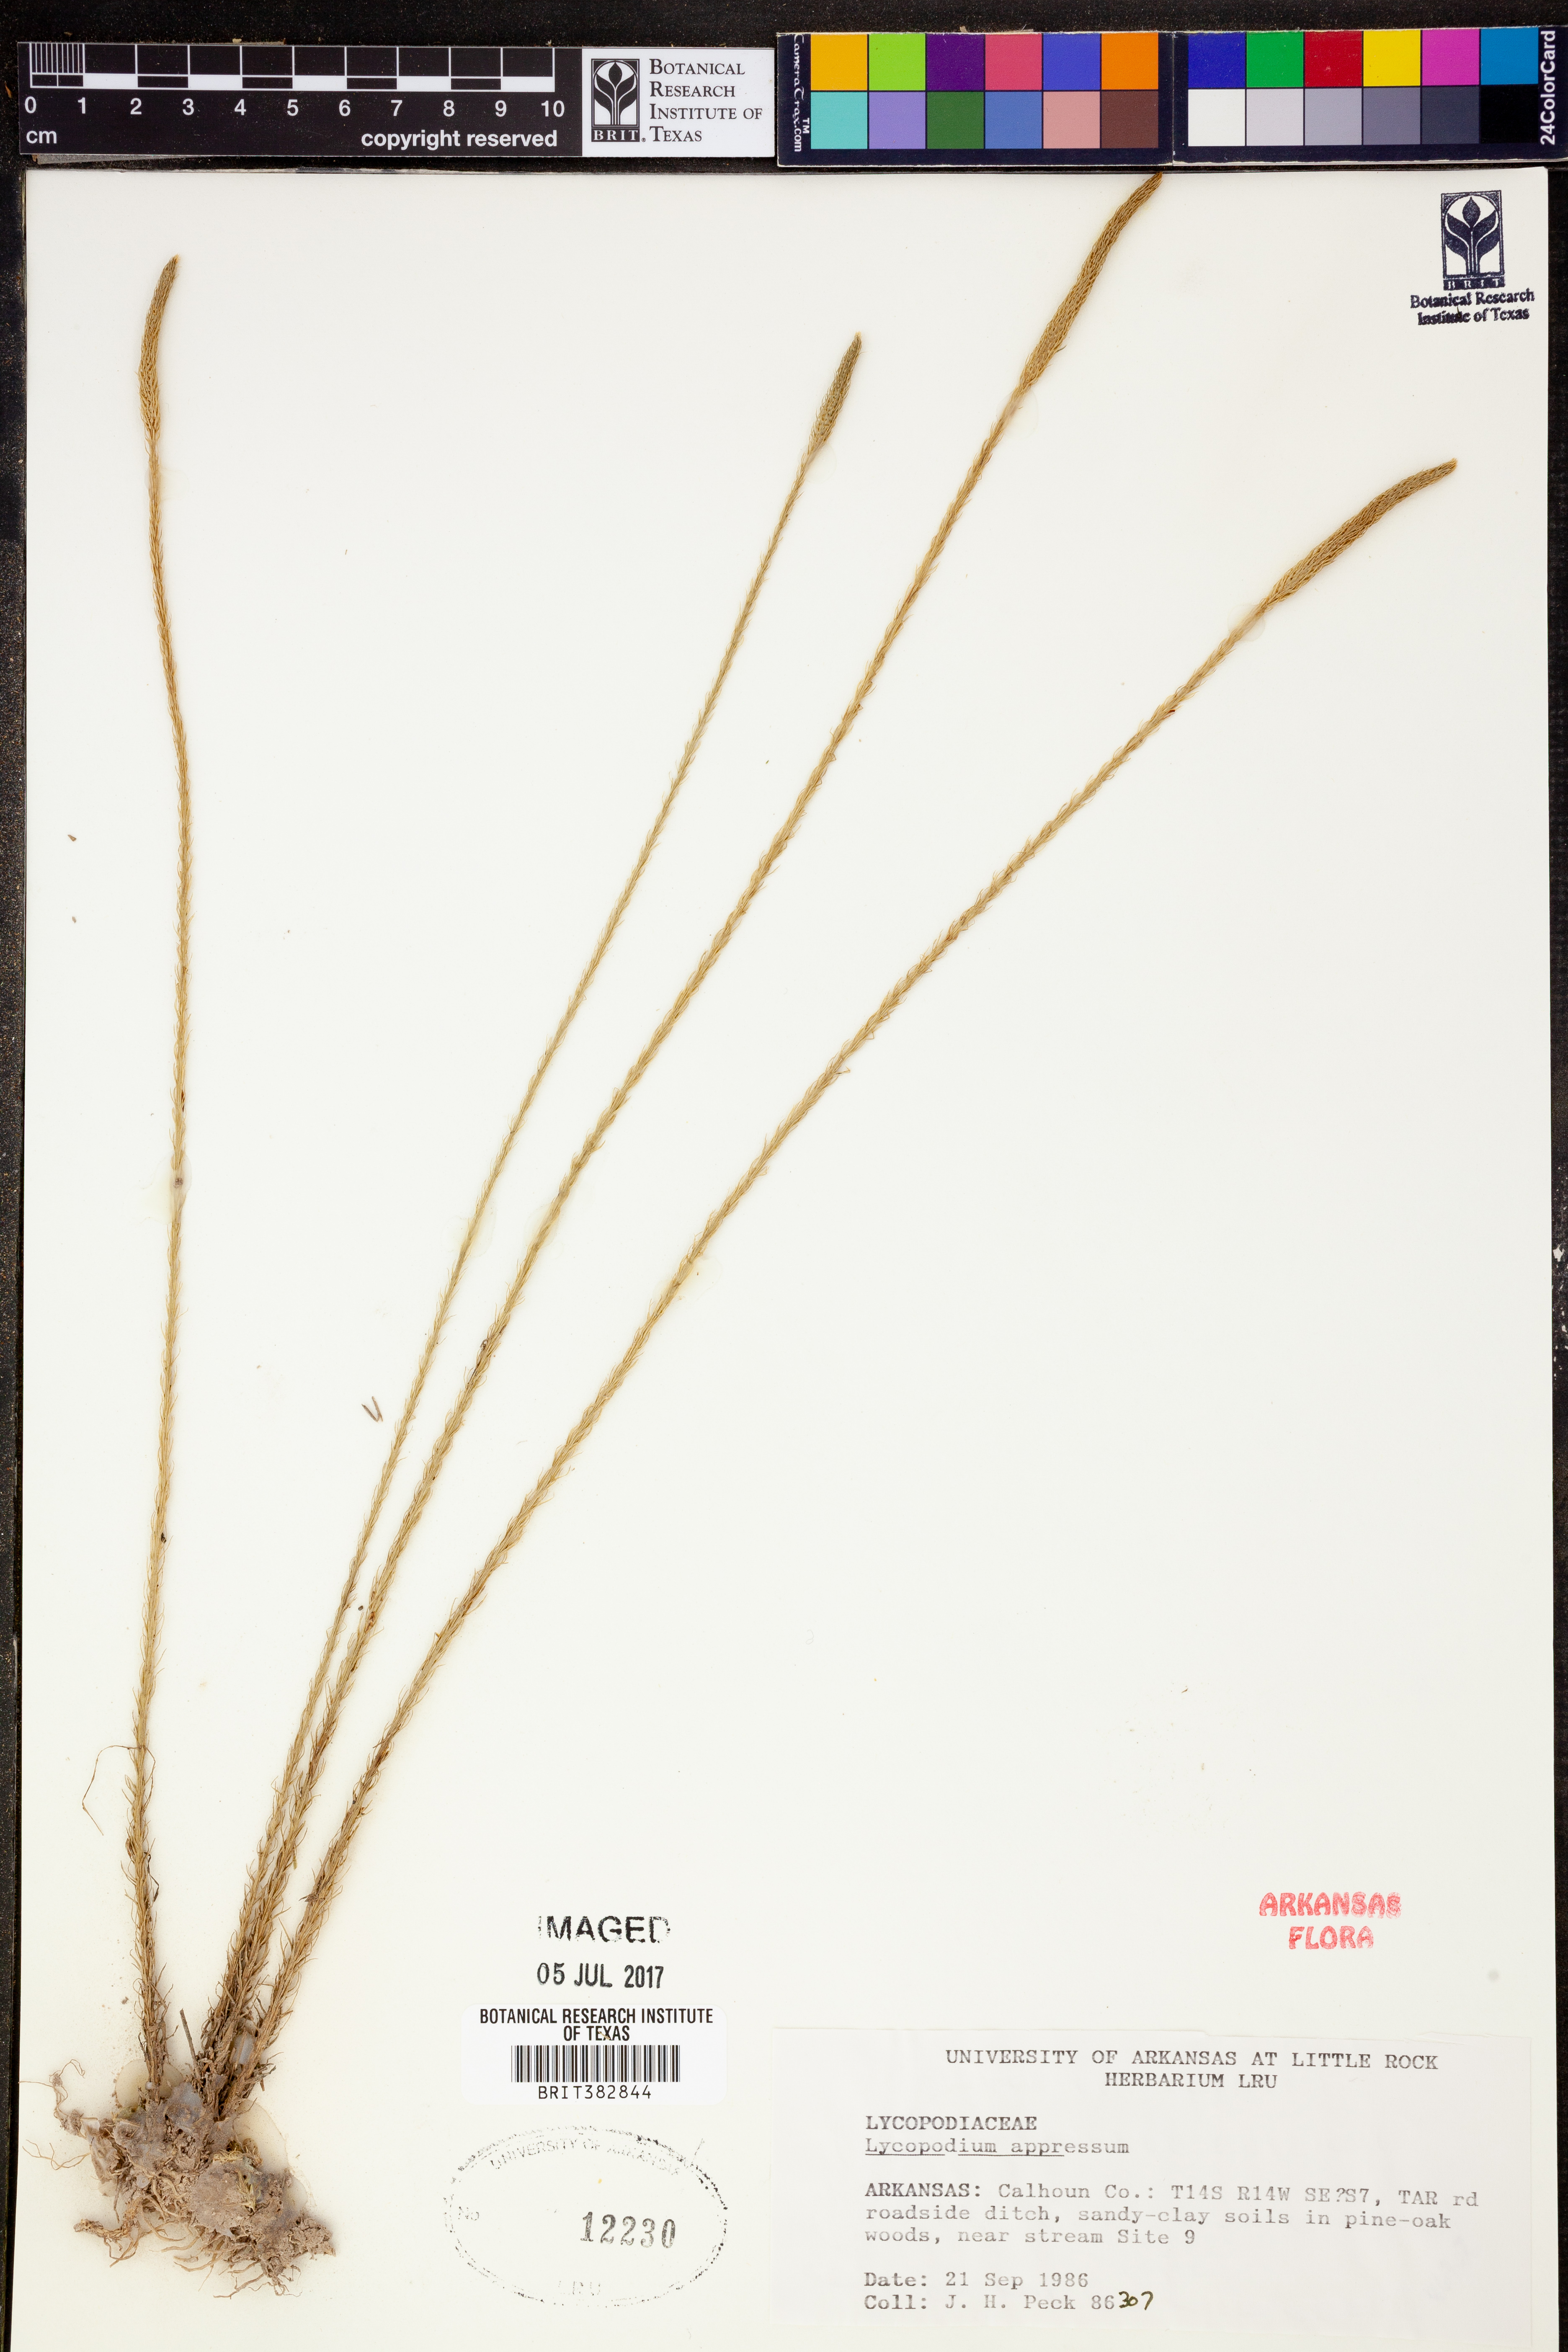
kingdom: Plantae
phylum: Tracheophyta
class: Lycopodiopsida
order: Lycopodiales
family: Lycopodiaceae
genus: Lycopodiella
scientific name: Lycopodiella appressa
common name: Appressed bog clubmoss
